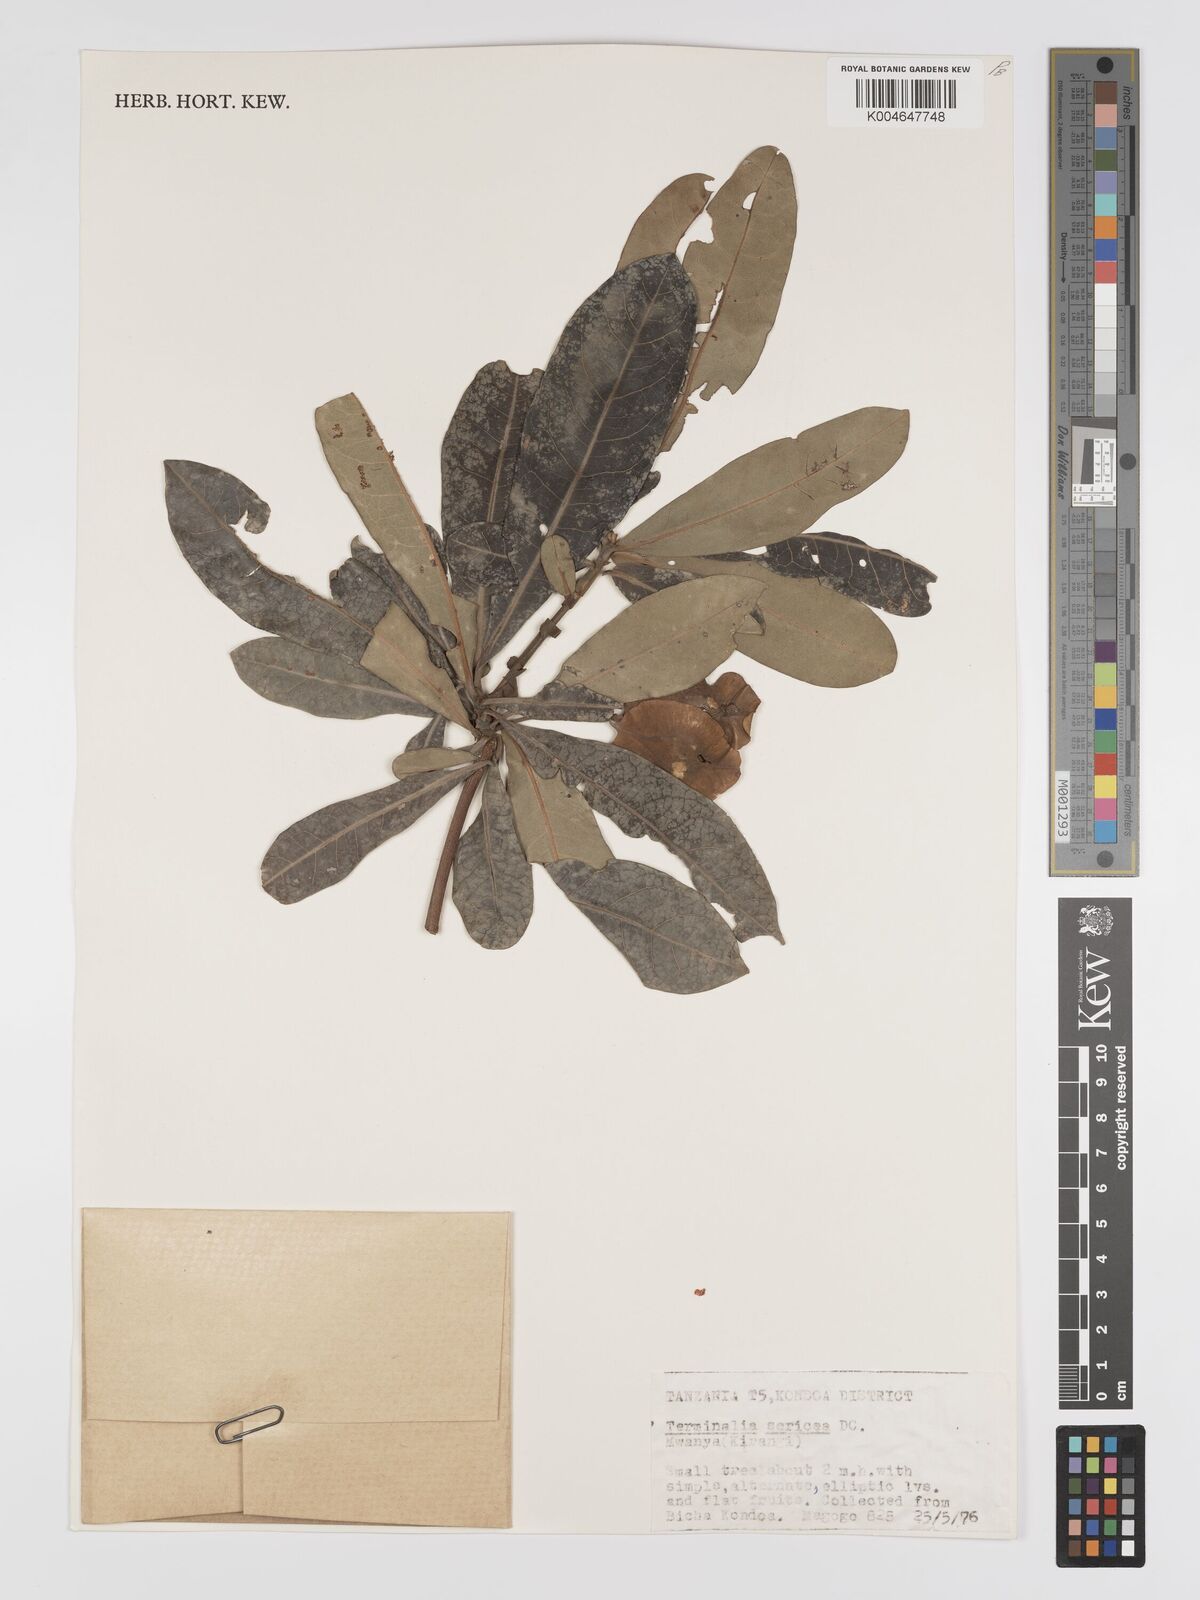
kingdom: Plantae
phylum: Tracheophyta
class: Magnoliopsida
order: Myrtales
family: Combretaceae
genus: Terminalia
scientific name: Terminalia
